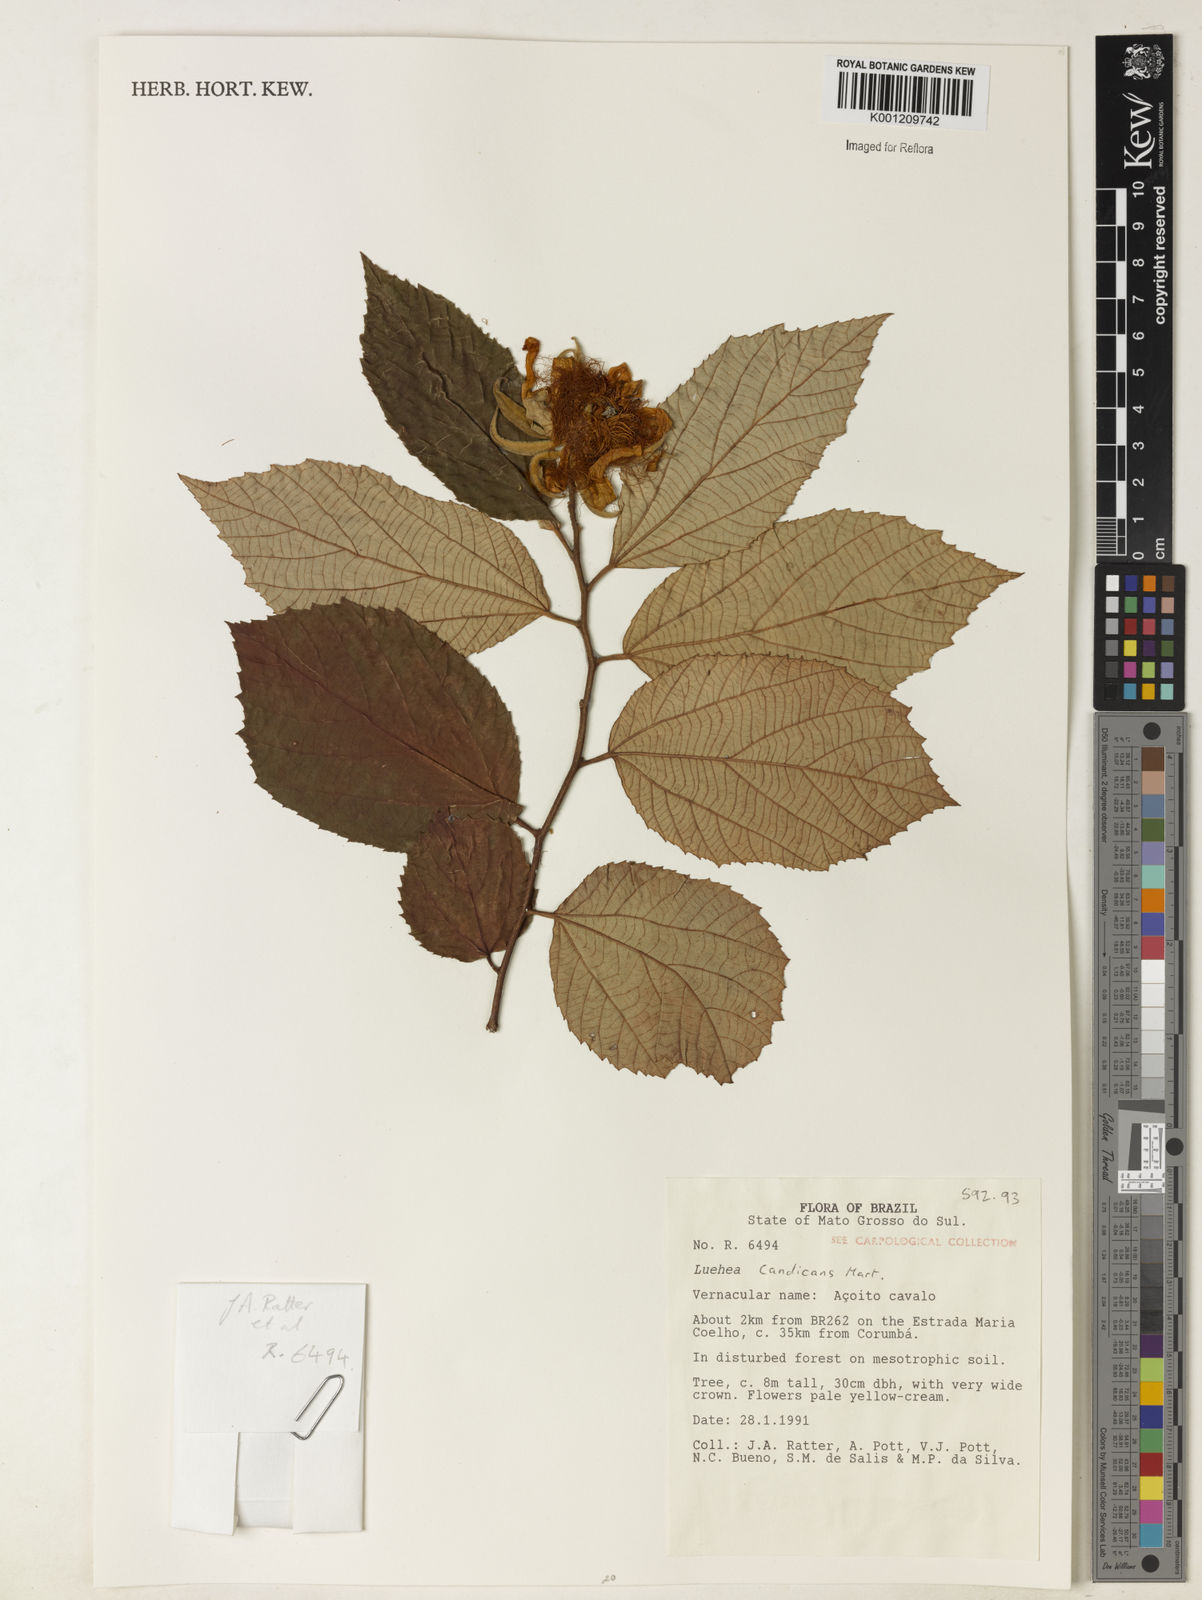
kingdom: Plantae
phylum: Tracheophyta
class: Magnoliopsida
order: Malvales
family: Malvaceae
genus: Luehea
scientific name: Luehea candicans
